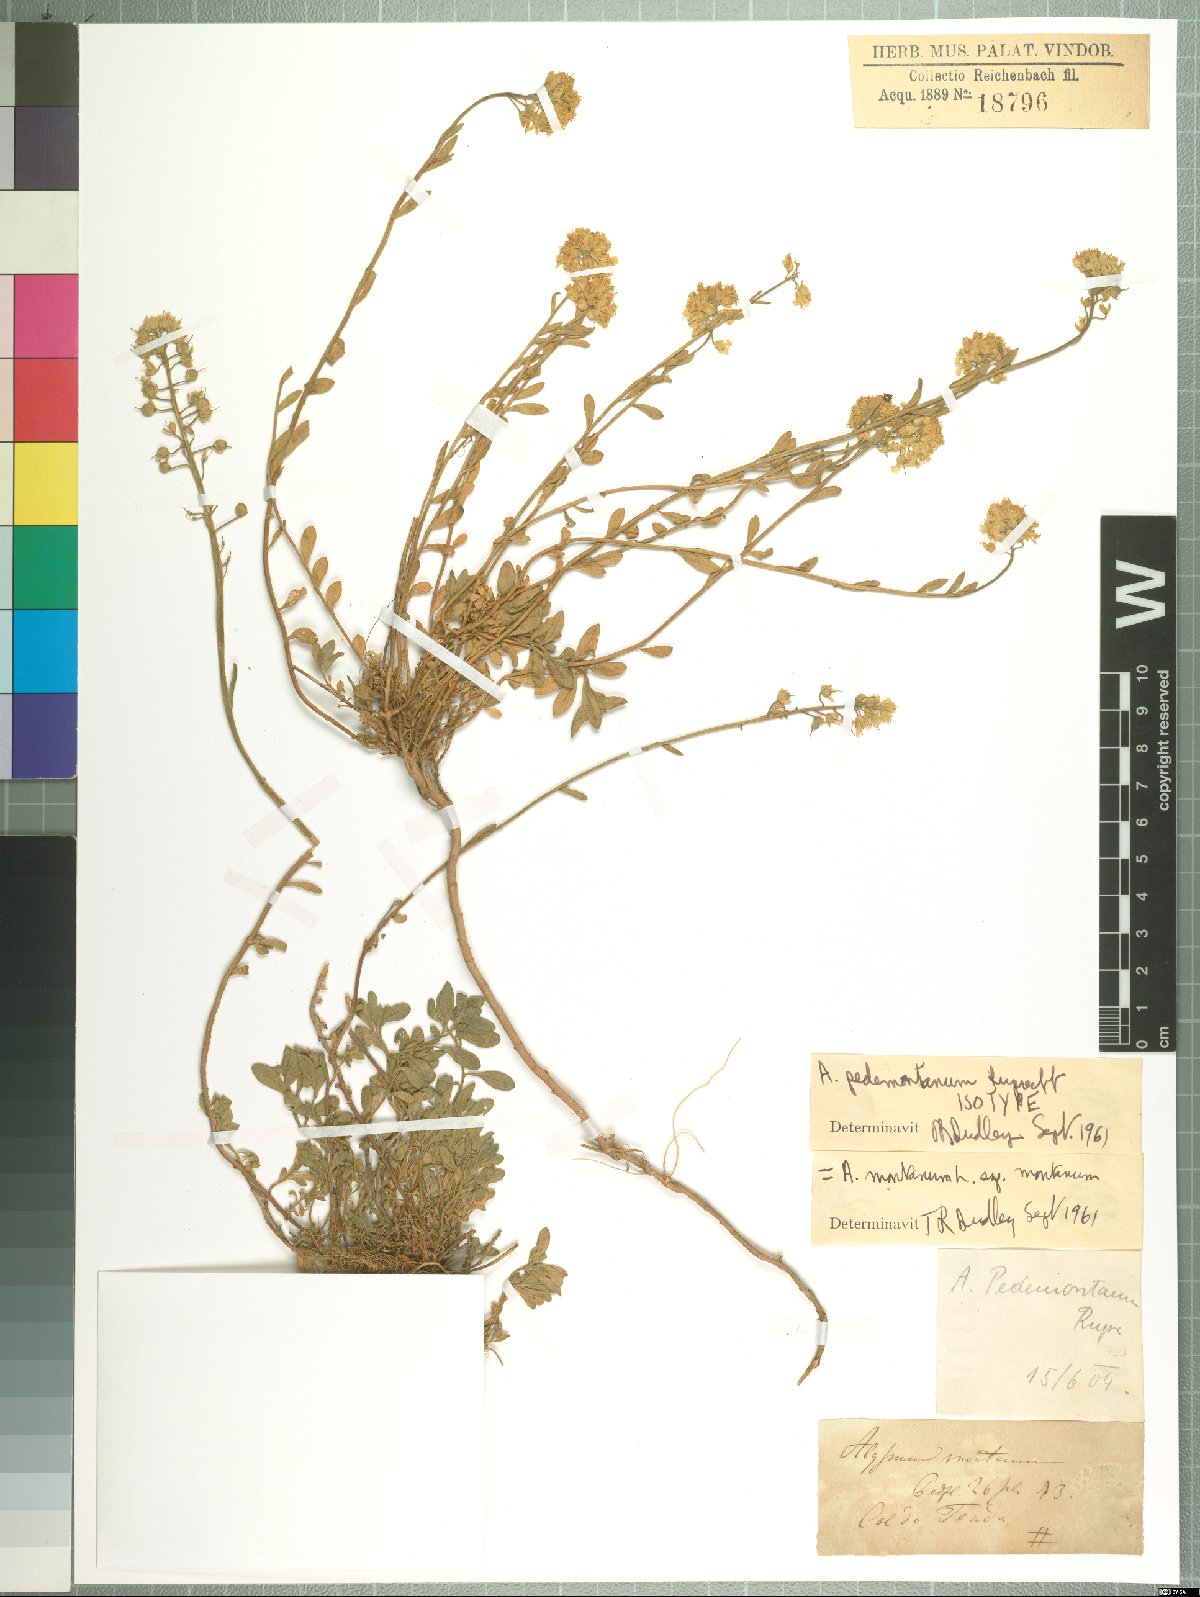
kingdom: Plantae
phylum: Tracheophyta
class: Magnoliopsida
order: Brassicales
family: Brassicaceae
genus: Alyssum
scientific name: Alyssum montanum
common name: Mountain alison
